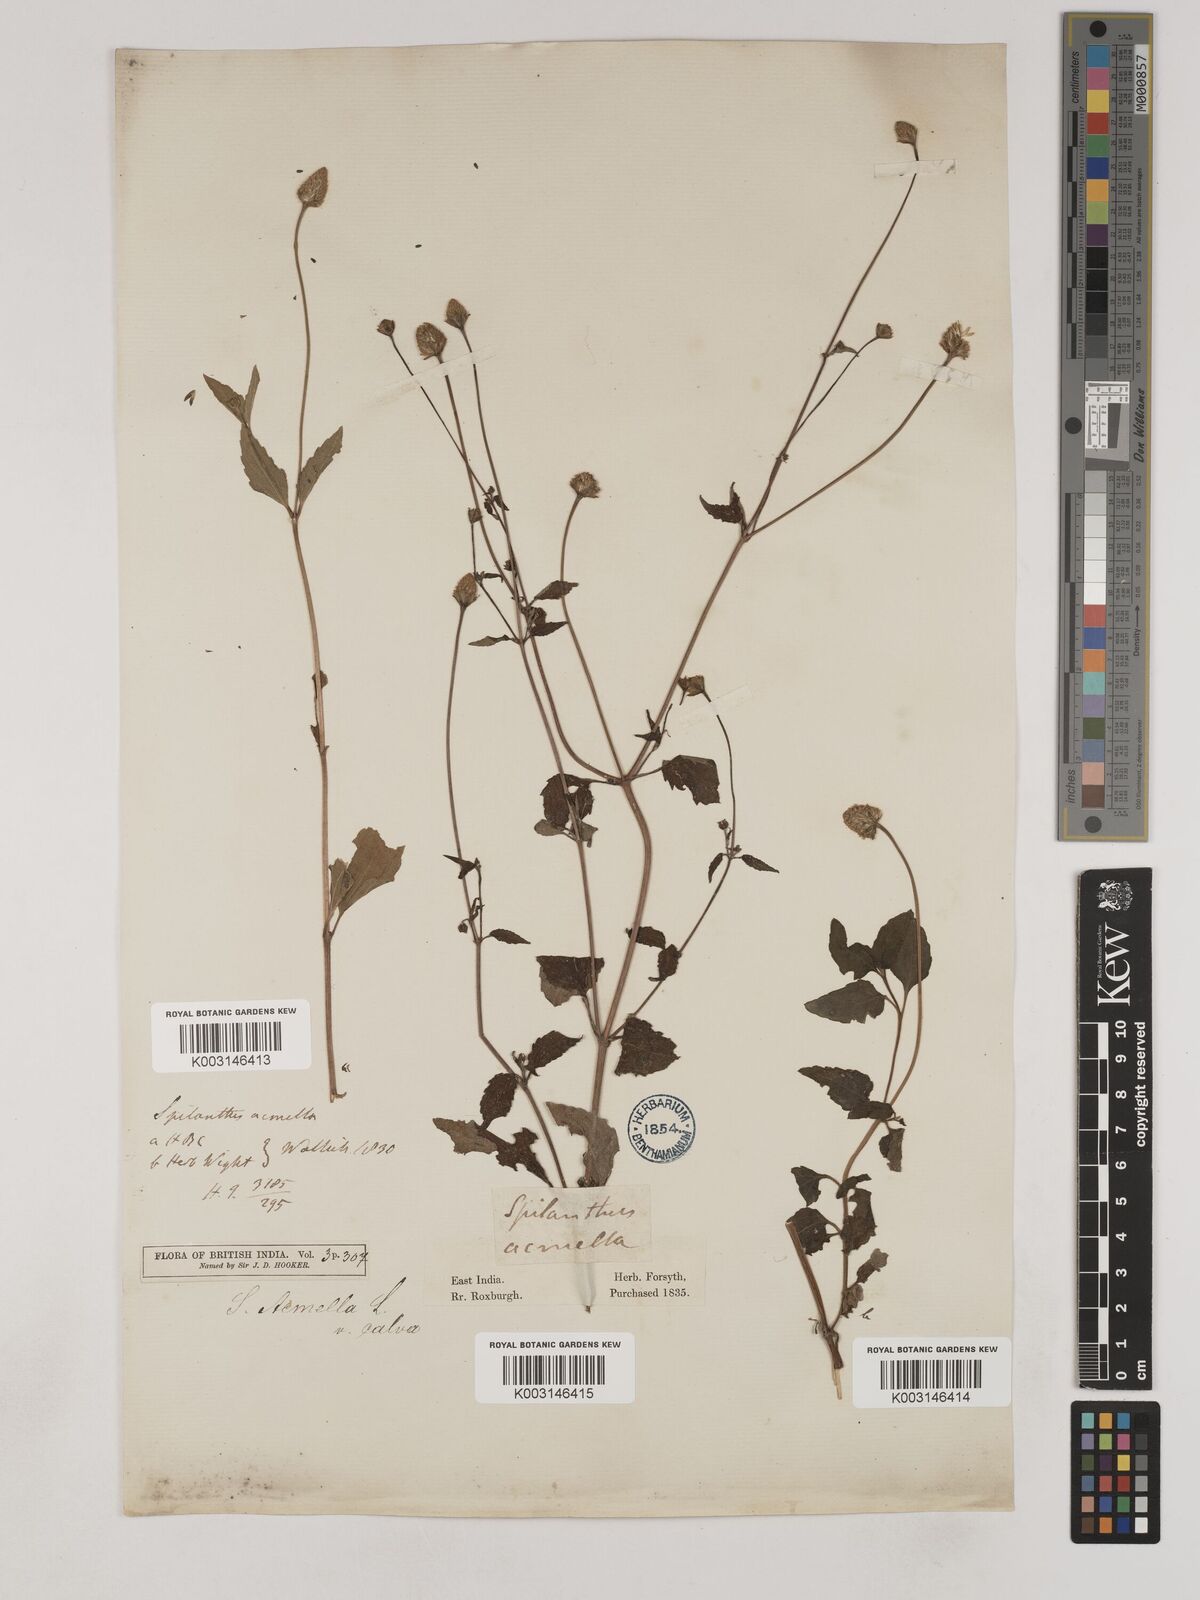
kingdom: Plantae
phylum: Tracheophyta
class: Magnoliopsida
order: Asterales
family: Asteraceae
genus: Acmella
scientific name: Acmella calva
